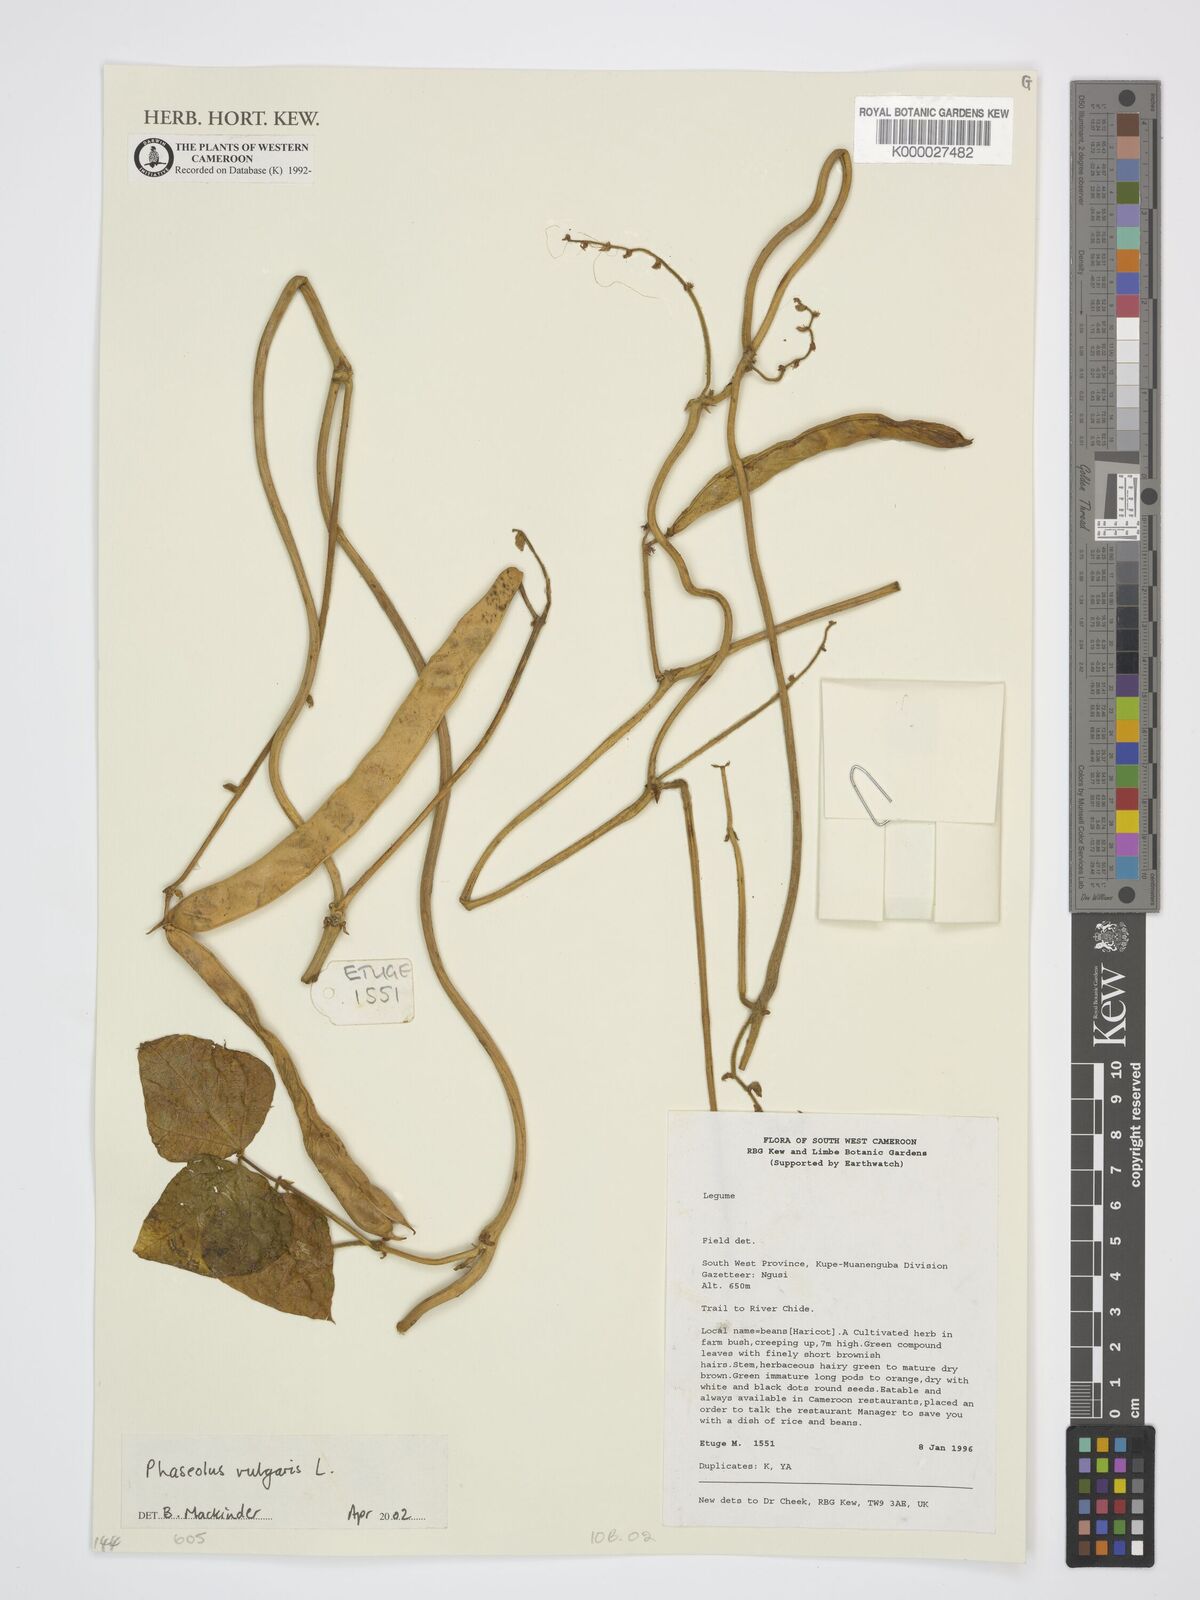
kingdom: Plantae
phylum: Tracheophyta
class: Magnoliopsida
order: Fabales
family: Fabaceae
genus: Phaseolus
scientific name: Phaseolus vulgaris
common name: Bean
